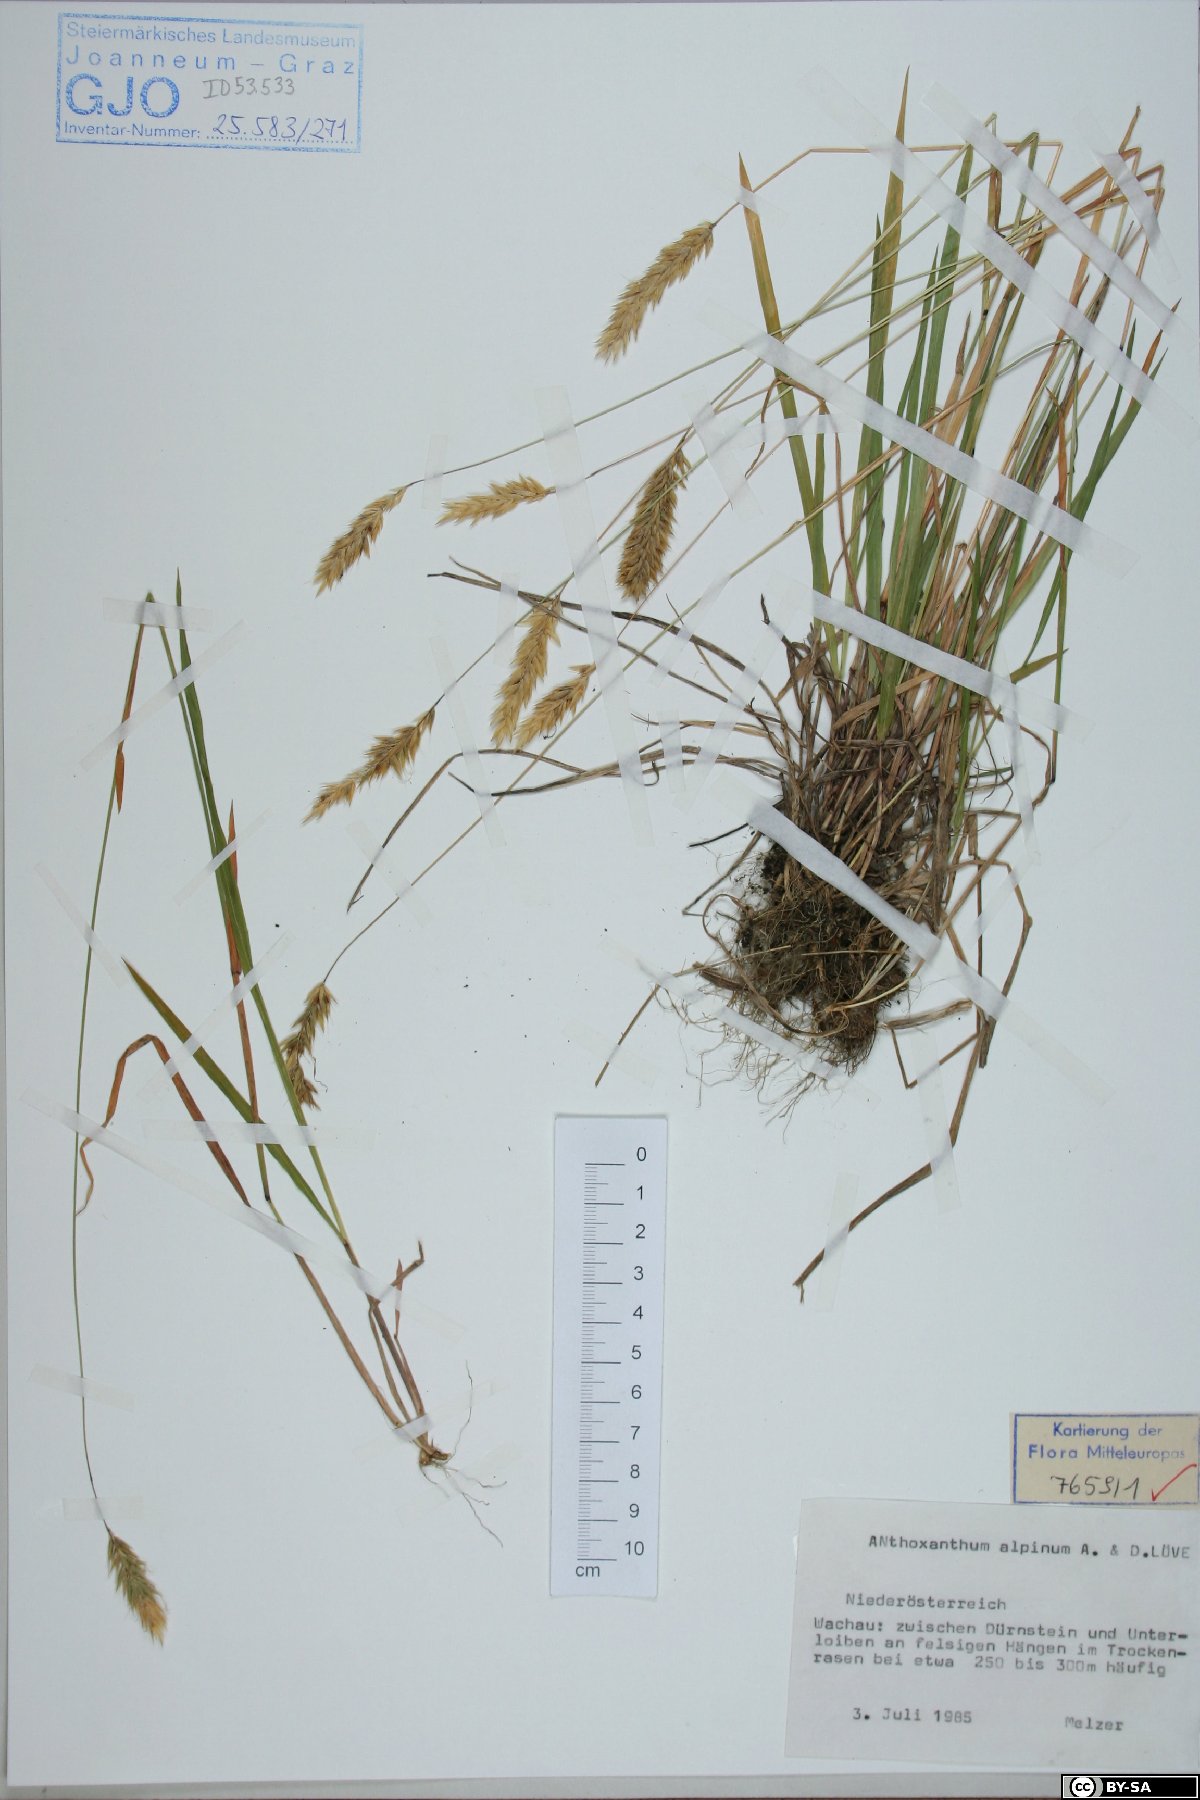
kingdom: Plantae
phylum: Tracheophyta
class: Liliopsida
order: Poales
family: Poaceae
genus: Anthoxanthum
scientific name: Anthoxanthum nipponicum
